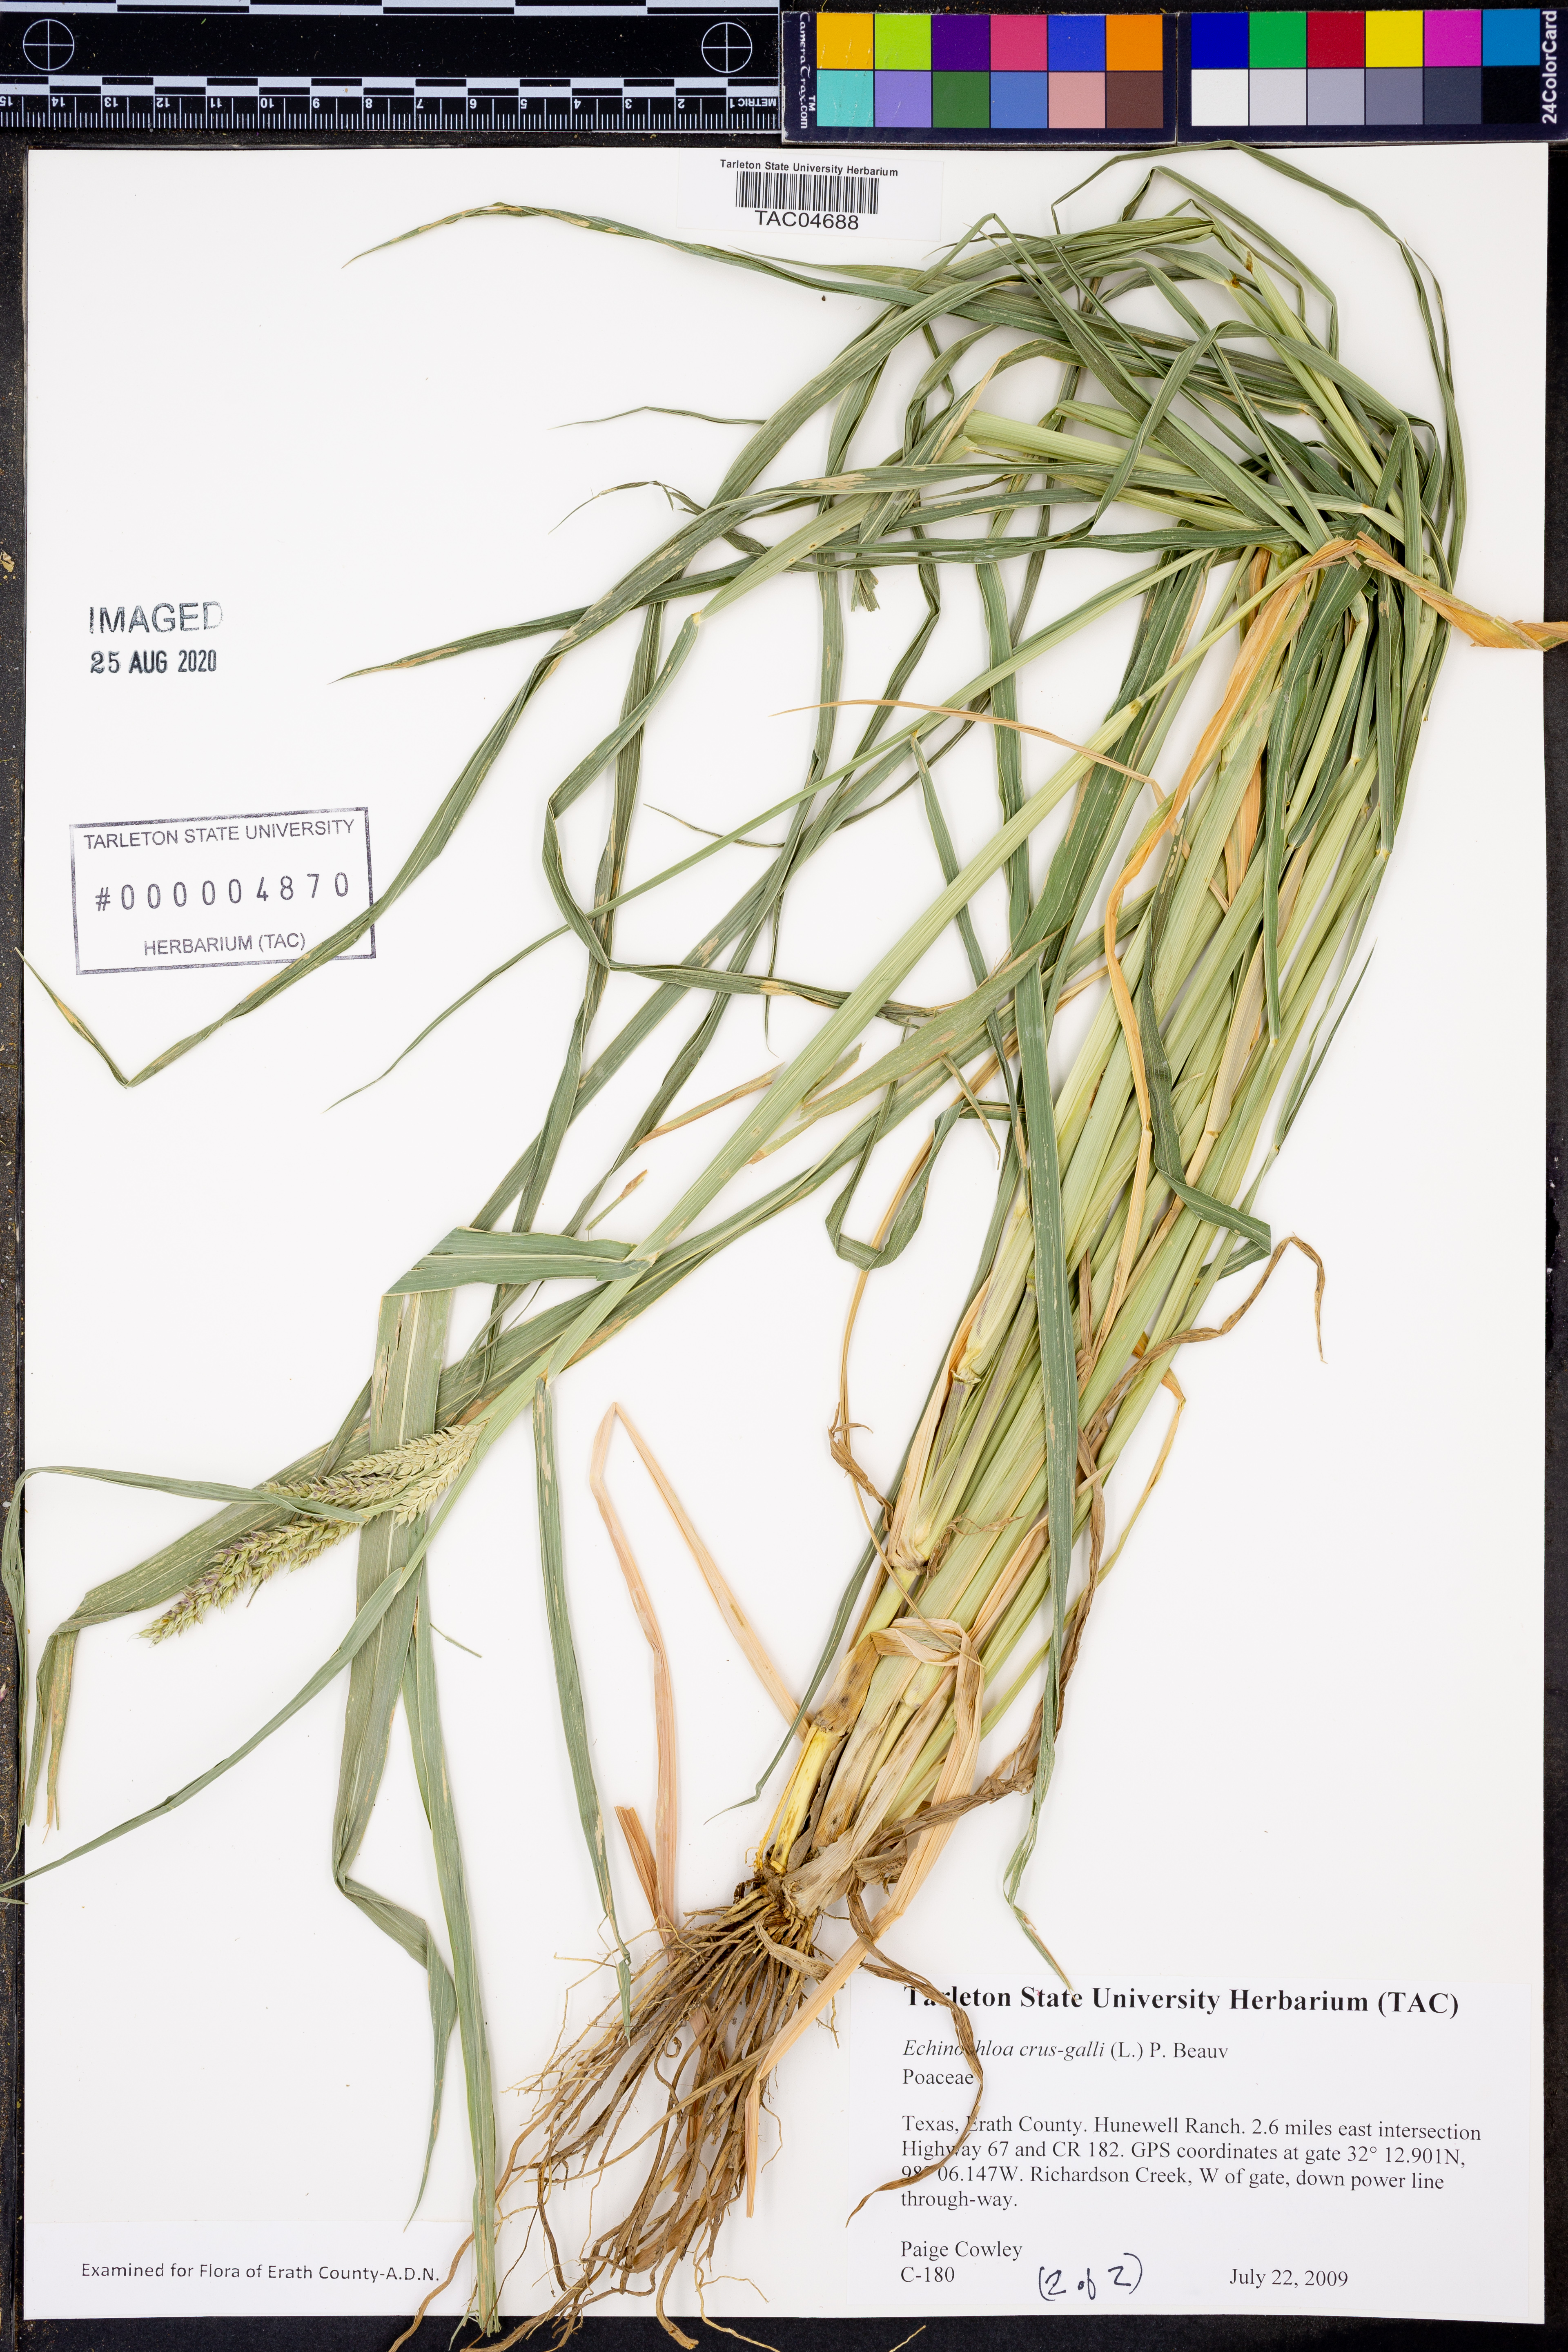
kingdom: Plantae
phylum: Tracheophyta
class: Liliopsida
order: Poales
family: Poaceae
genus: Echinochloa
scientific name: Echinochloa crus-galli
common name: Cockspur
